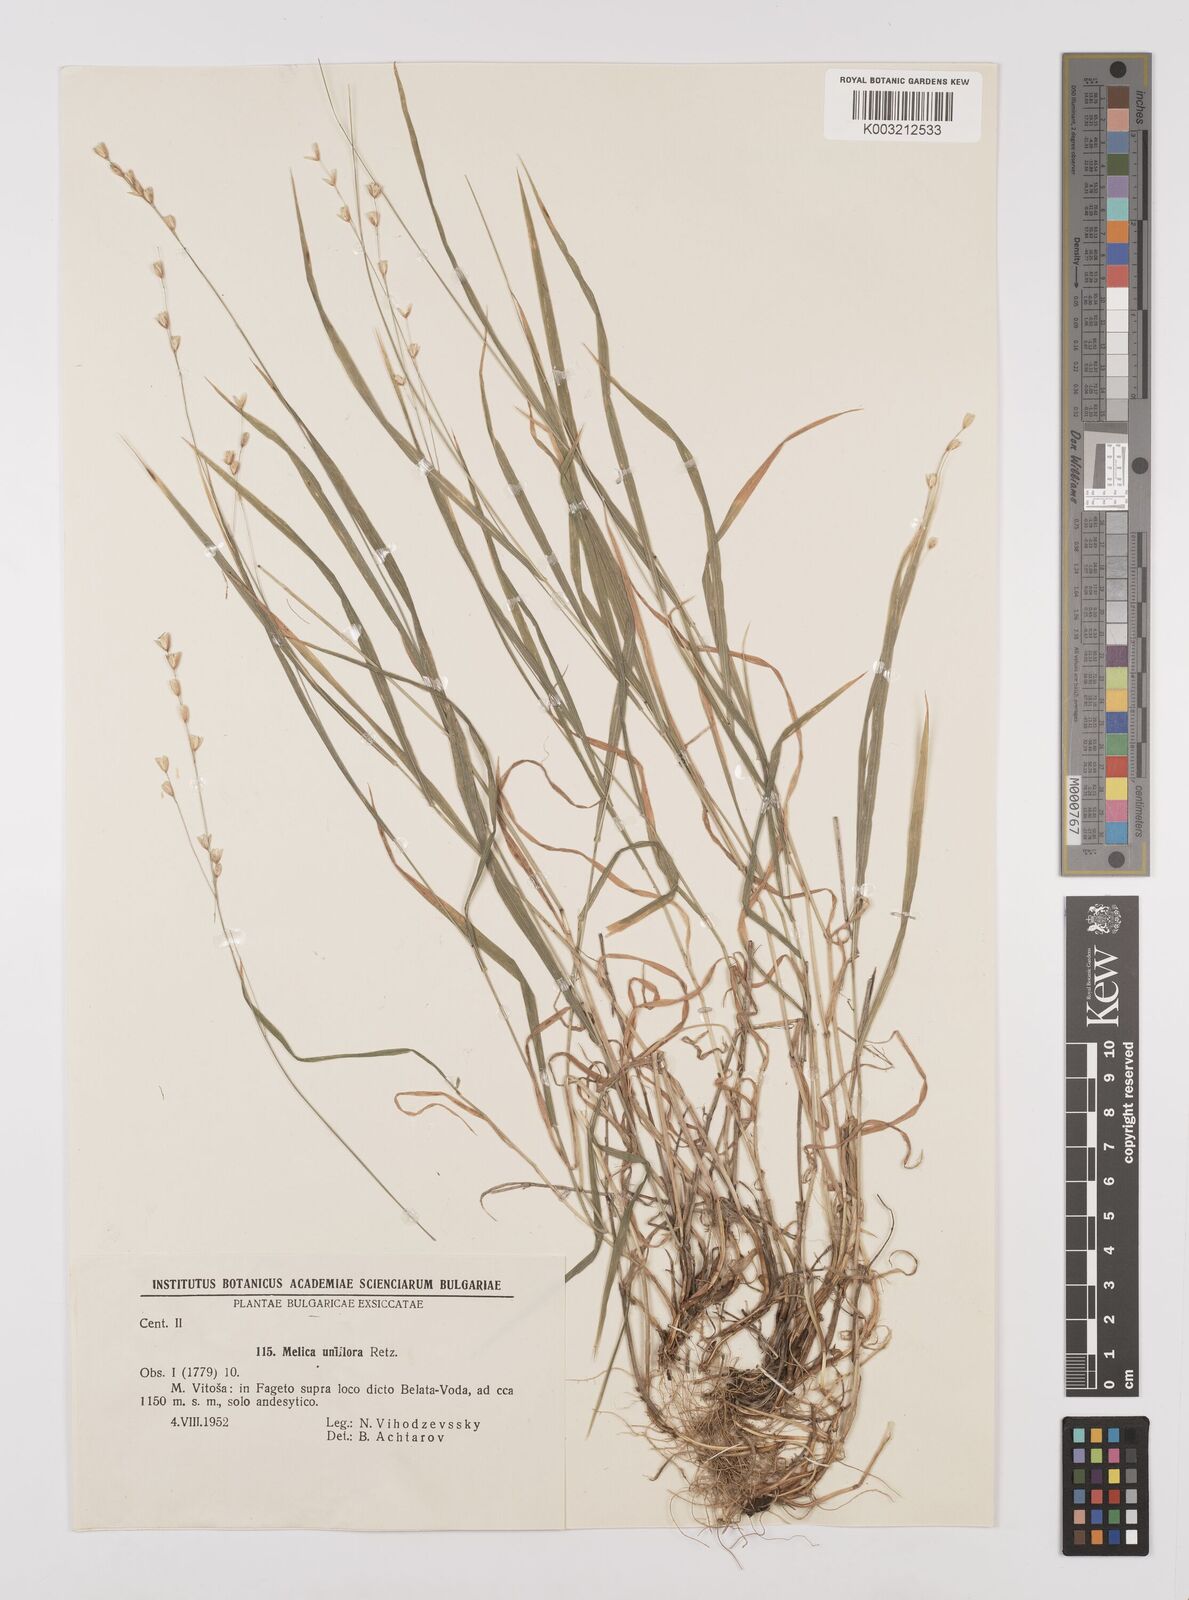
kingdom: Plantae
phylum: Tracheophyta
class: Liliopsida
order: Poales
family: Poaceae
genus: Melica
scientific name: Melica uniflora
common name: Wood melick
